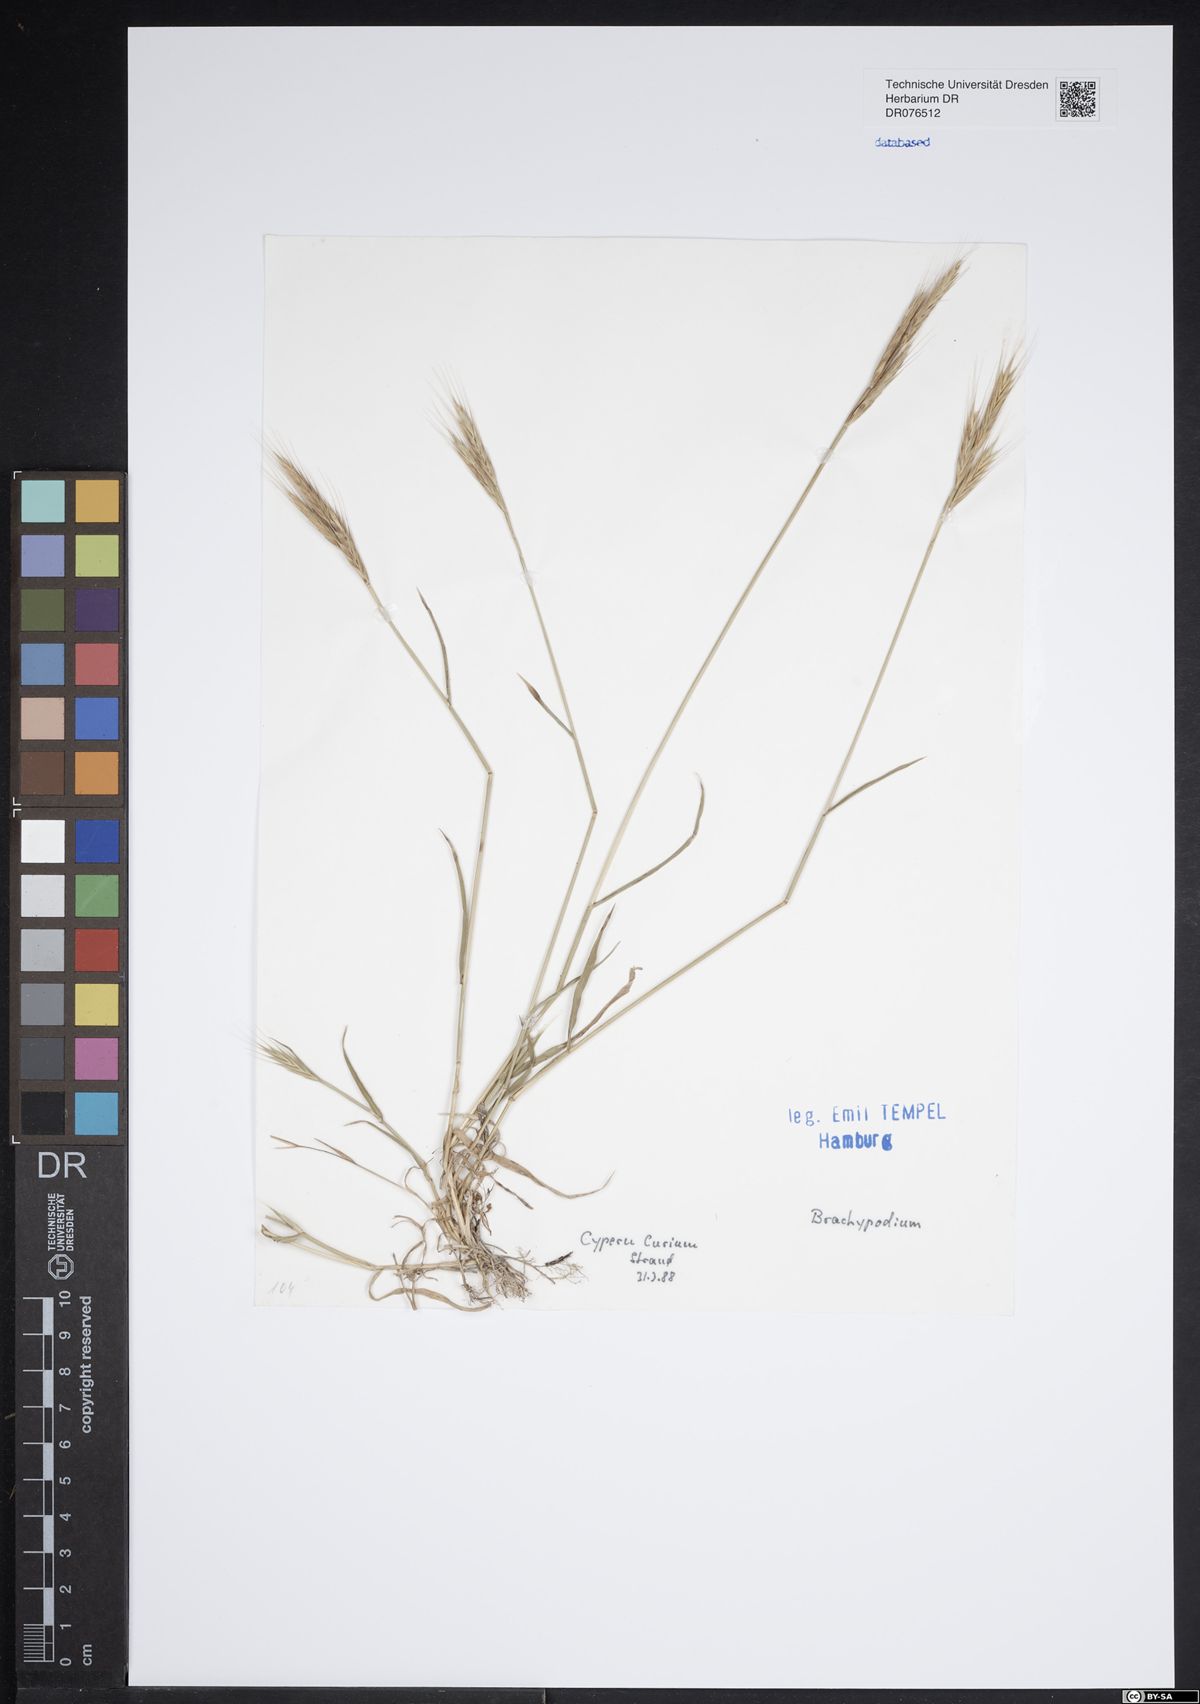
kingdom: Plantae
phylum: Tracheophyta
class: Liliopsida
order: Poales
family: Poaceae
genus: Brachypodium
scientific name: Brachypodium
